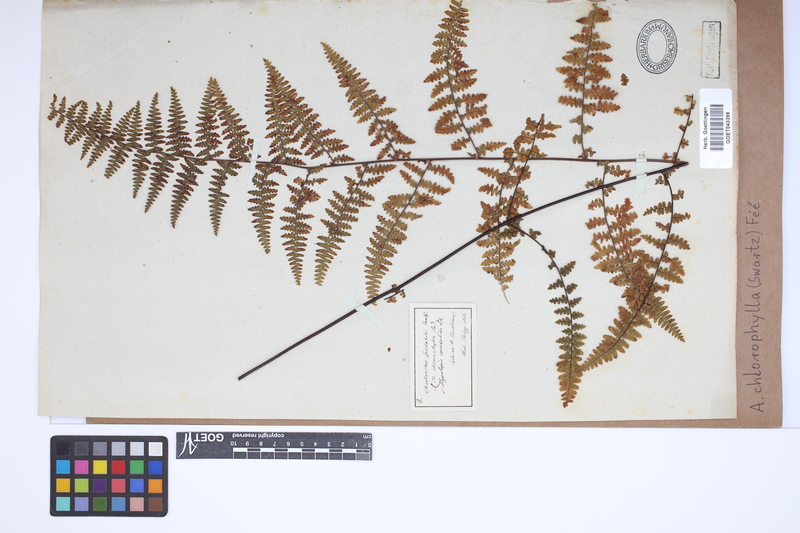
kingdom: Plantae
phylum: Tracheophyta
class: Polypodiopsida
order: Polypodiales
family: Pteridaceae
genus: Adiantopsis
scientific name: Adiantopsis chlorophylla
